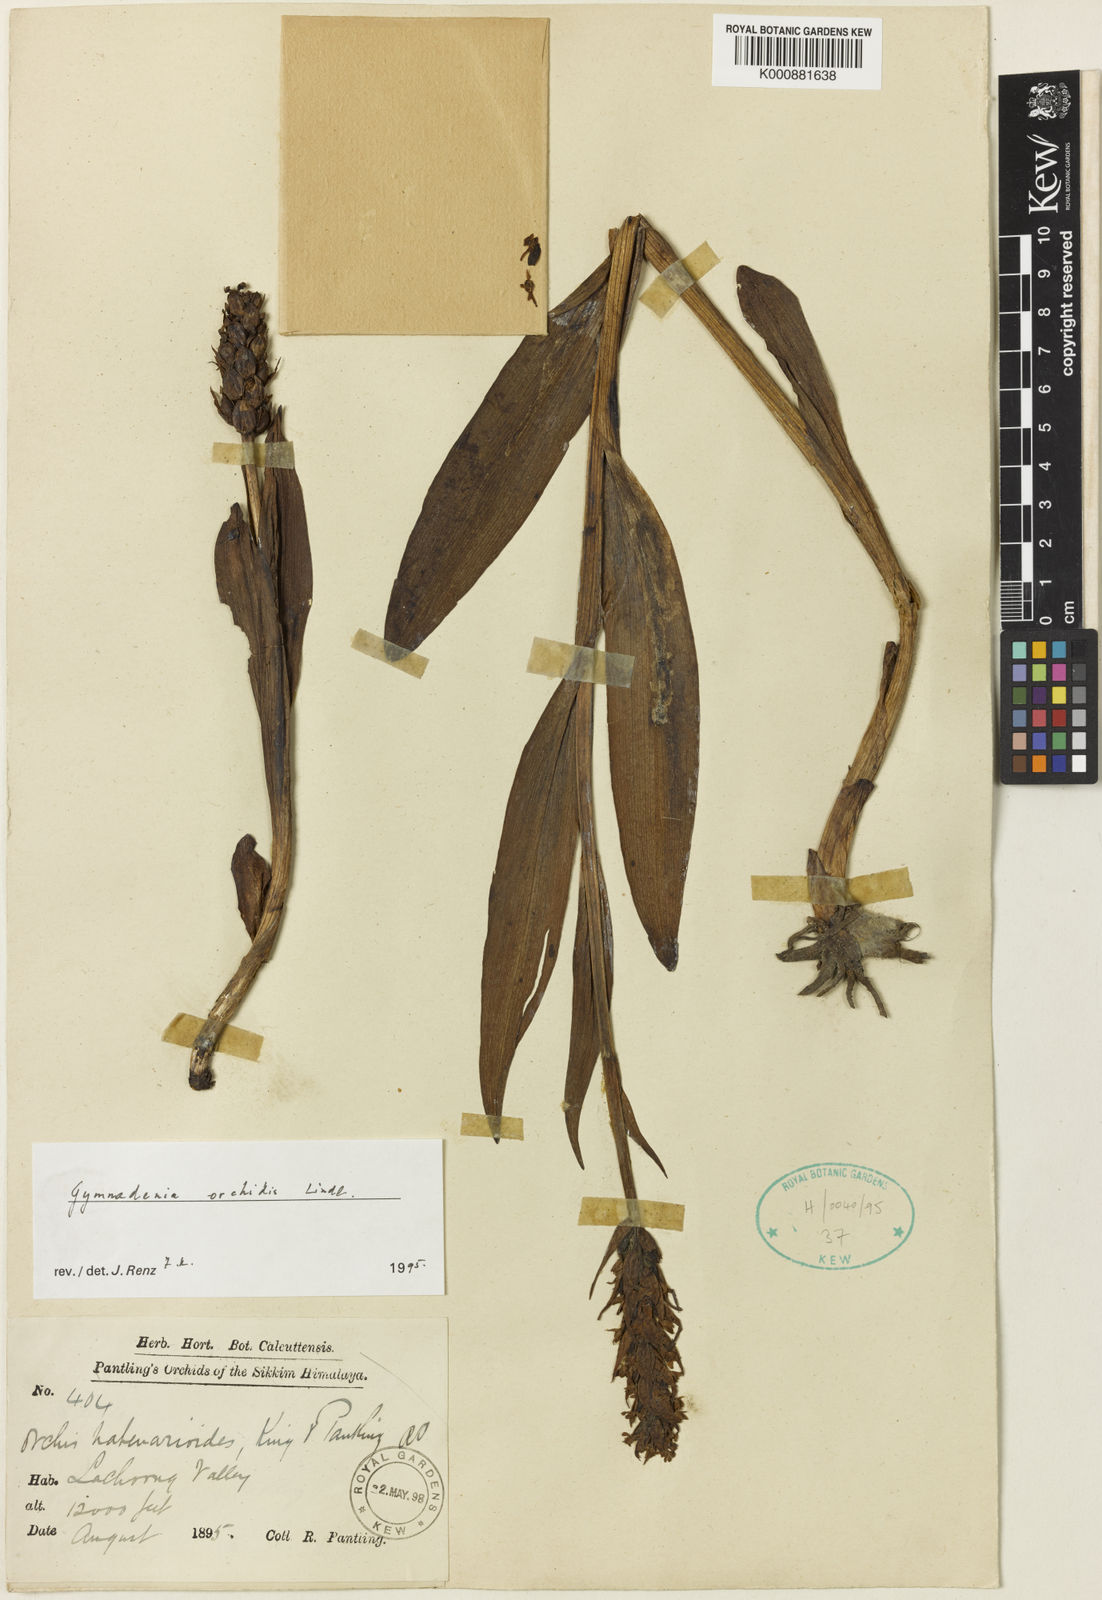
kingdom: Plantae
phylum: Tracheophyta
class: Liliopsida
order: Asparagales
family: Orchidaceae
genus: Gymnadenia
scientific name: Gymnadenia orchidis
